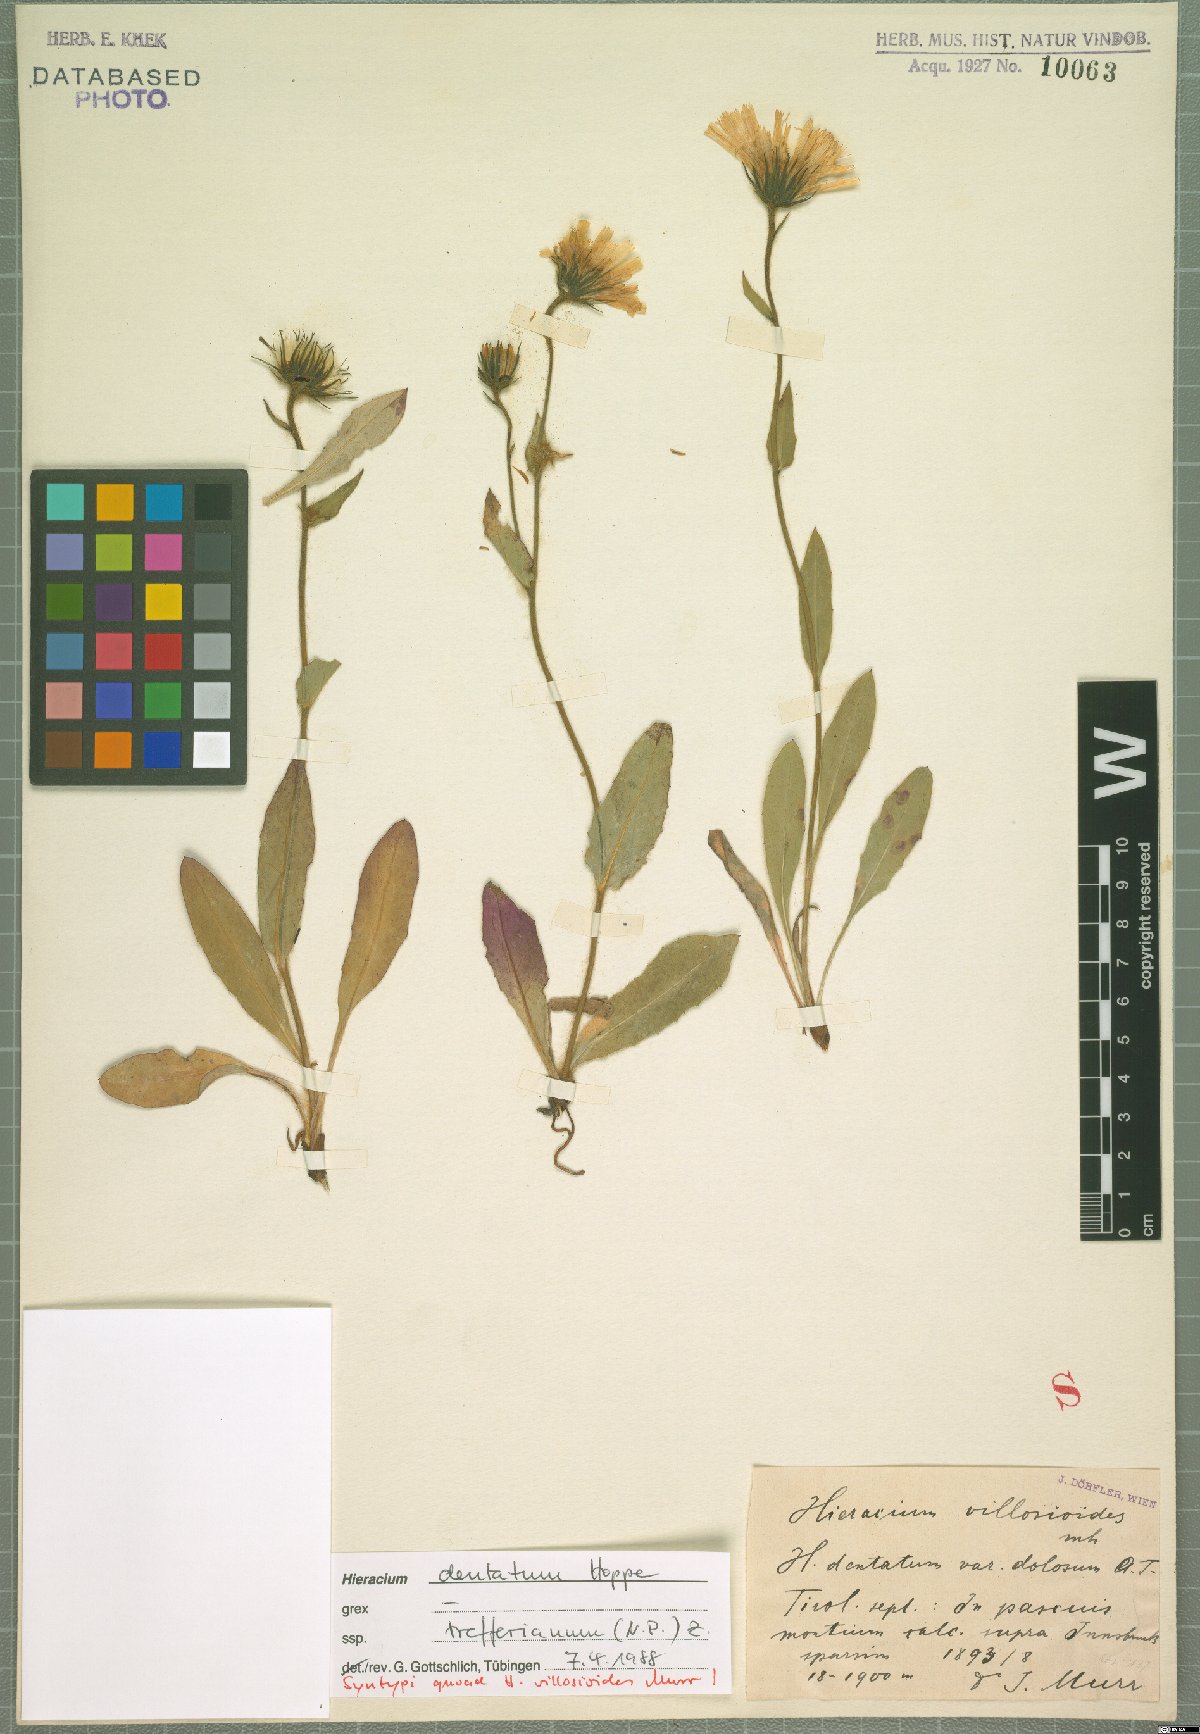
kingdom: Plantae
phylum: Tracheophyta
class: Magnoliopsida
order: Asterales
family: Asteraceae
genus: Hieracium
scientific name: Hieracium dentatum
